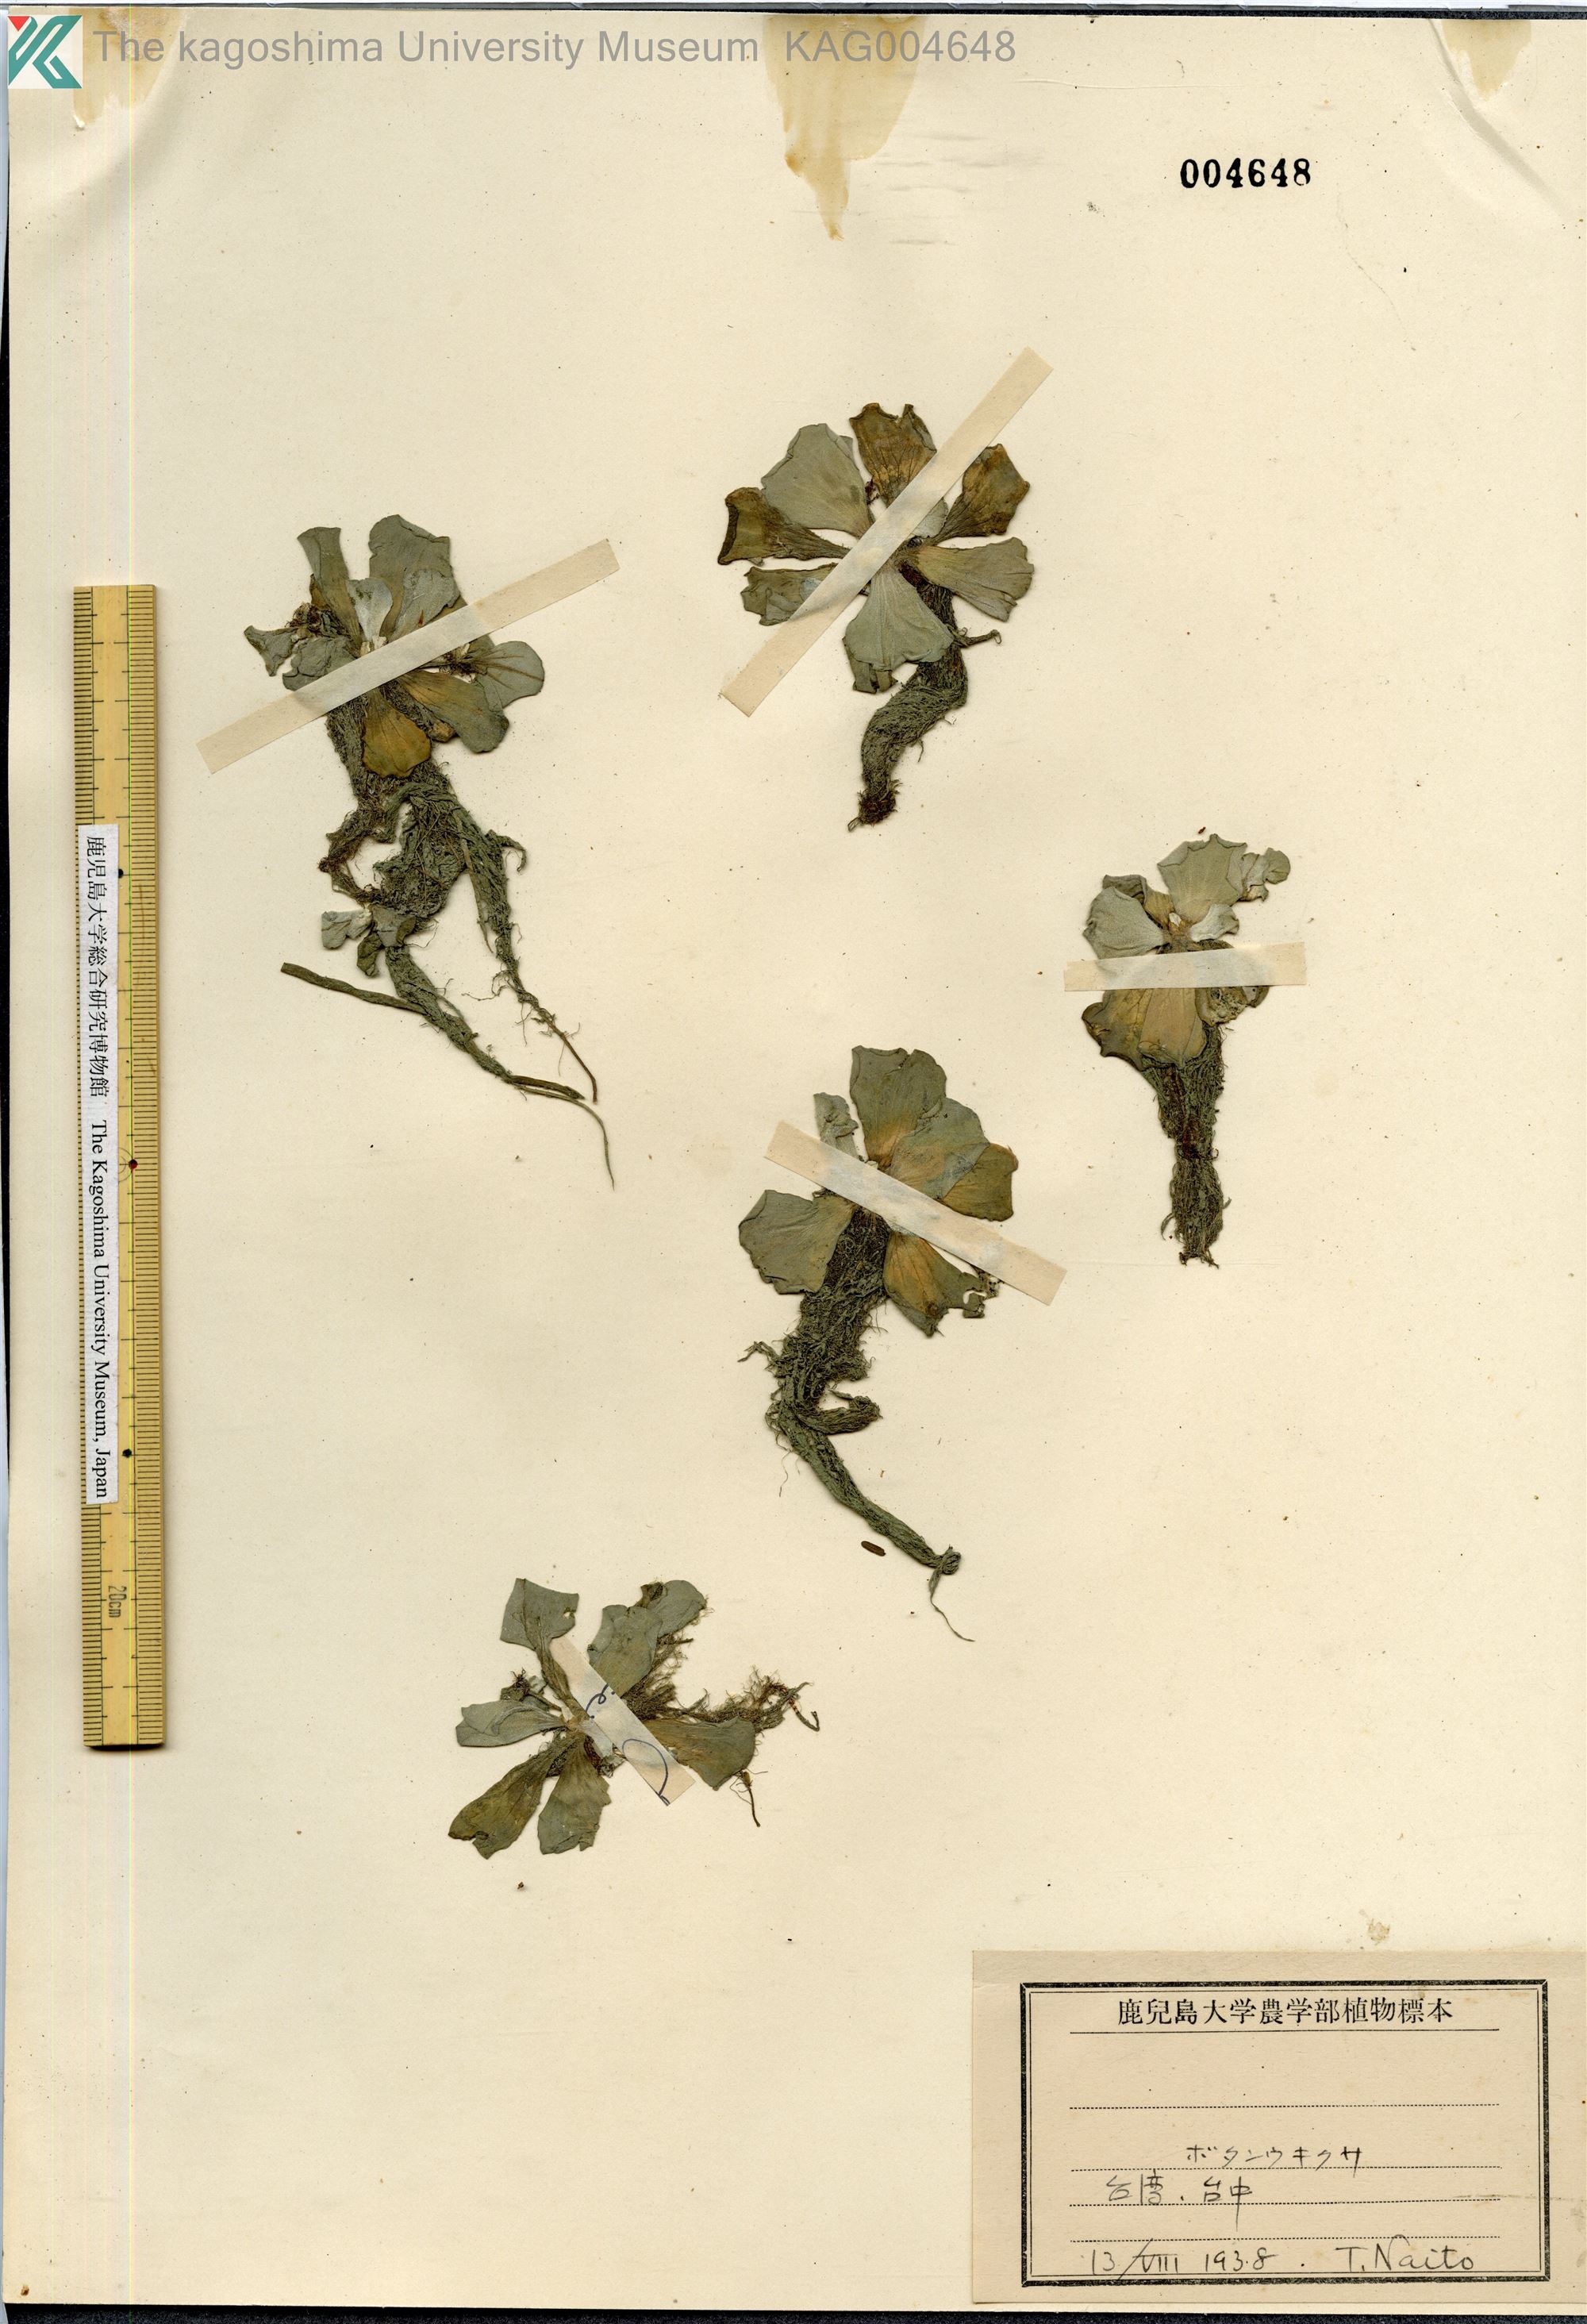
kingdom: Plantae
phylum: Tracheophyta
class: Liliopsida
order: Alismatales
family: Araceae
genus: Pistia
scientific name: Pistia stratiotes
